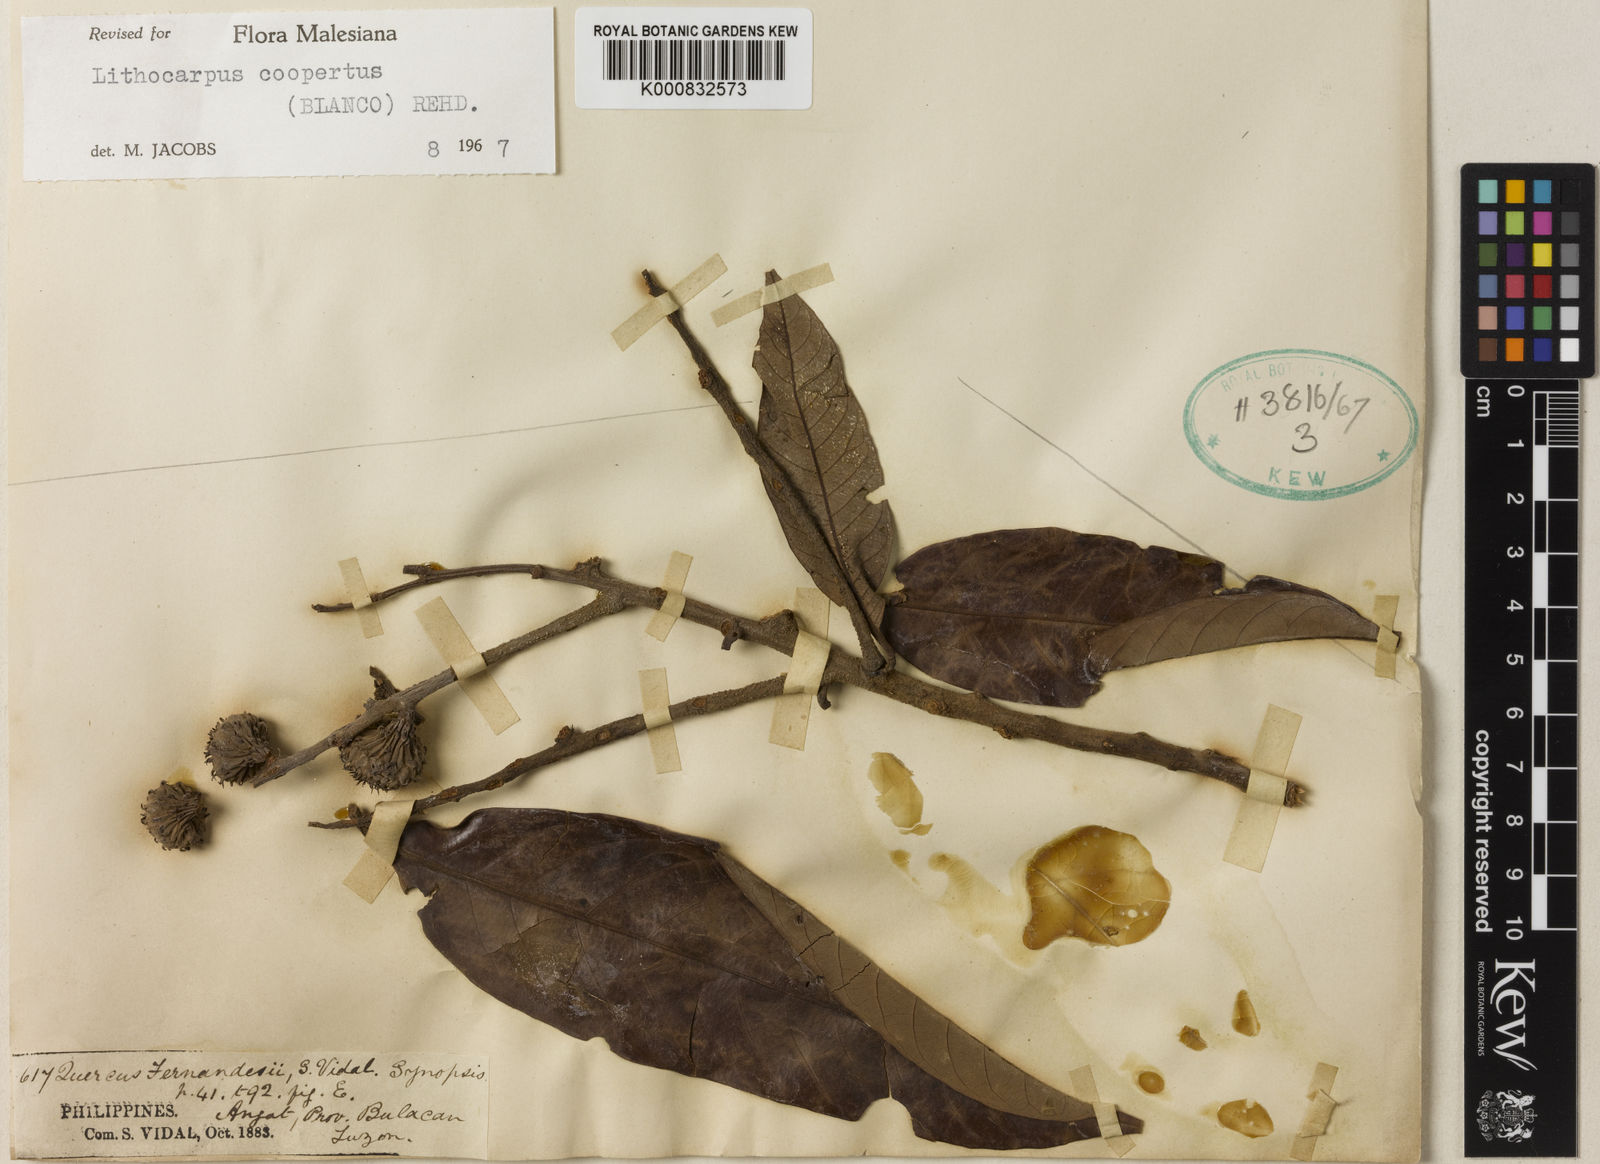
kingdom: Plantae
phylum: Tracheophyta
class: Magnoliopsida
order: Fagales
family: Fagaceae
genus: Lithocarpus
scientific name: Lithocarpus coopertus
